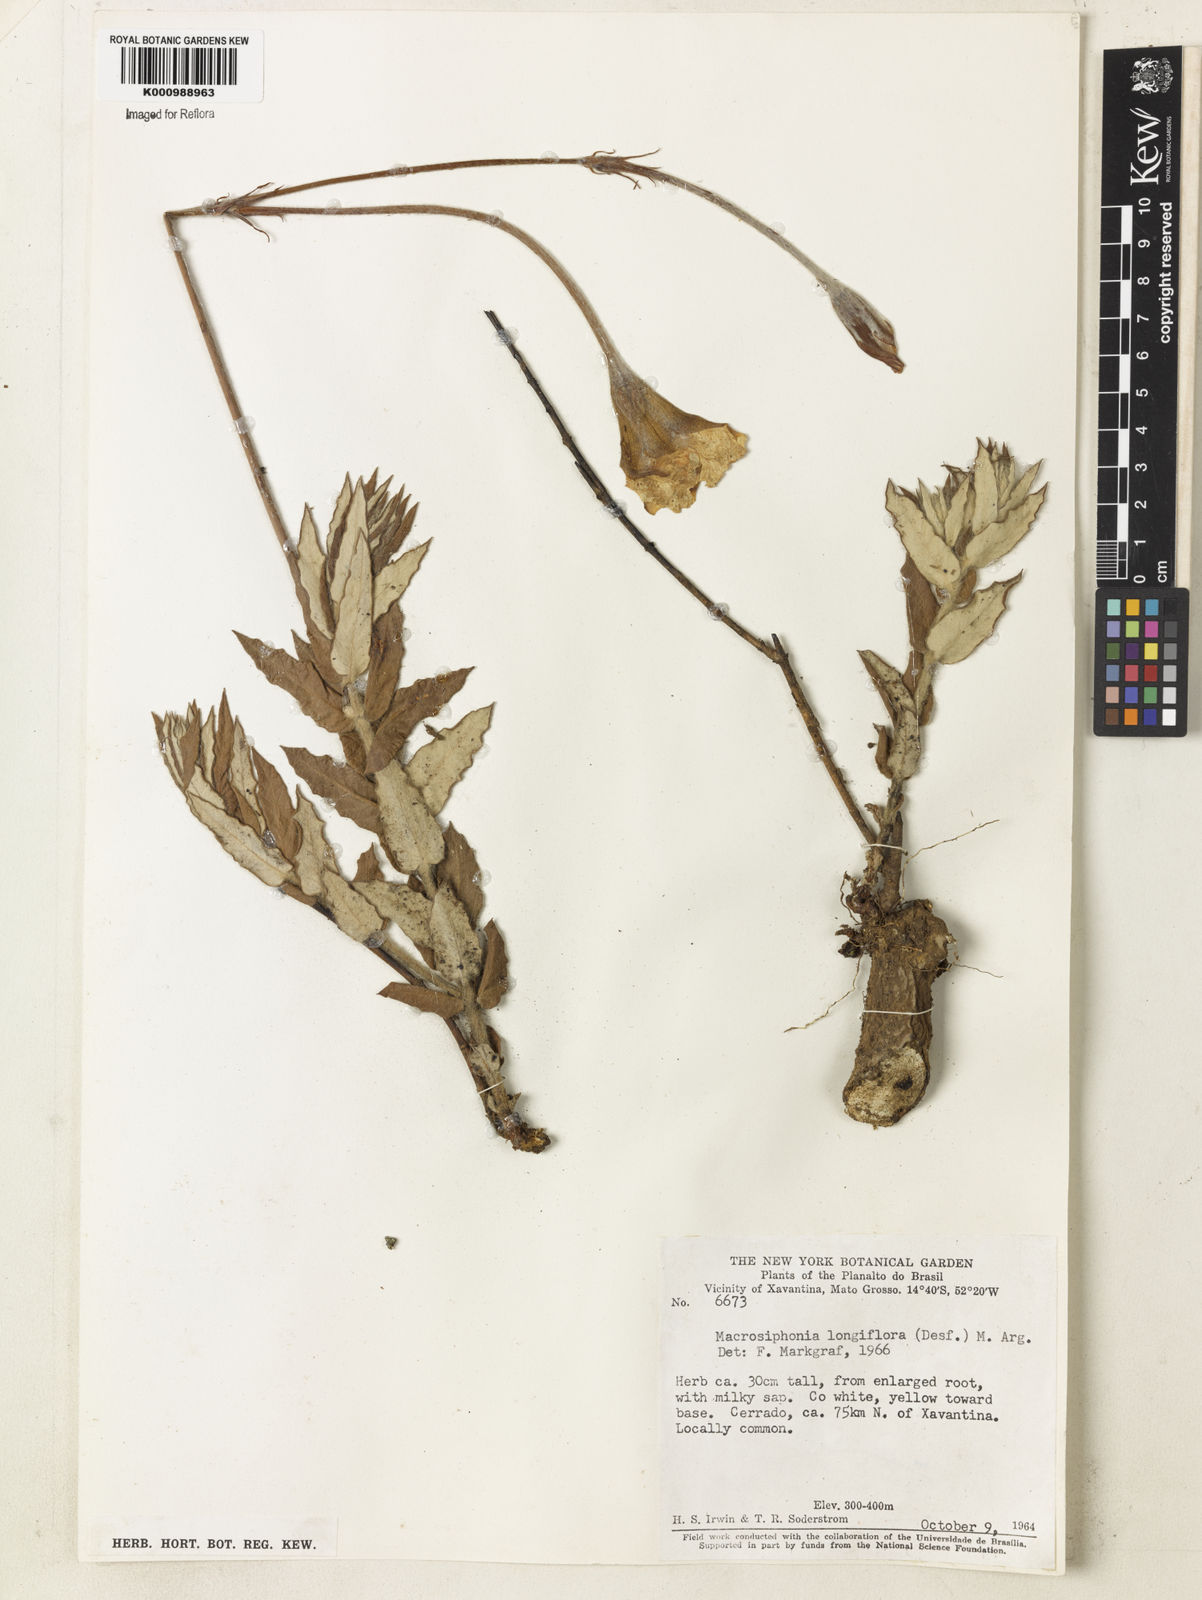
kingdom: Plantae
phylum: Tracheophyta
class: Magnoliopsida
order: Gentianales
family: Apocynaceae
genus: Mandevilla
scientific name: Mandevilla longiflora
